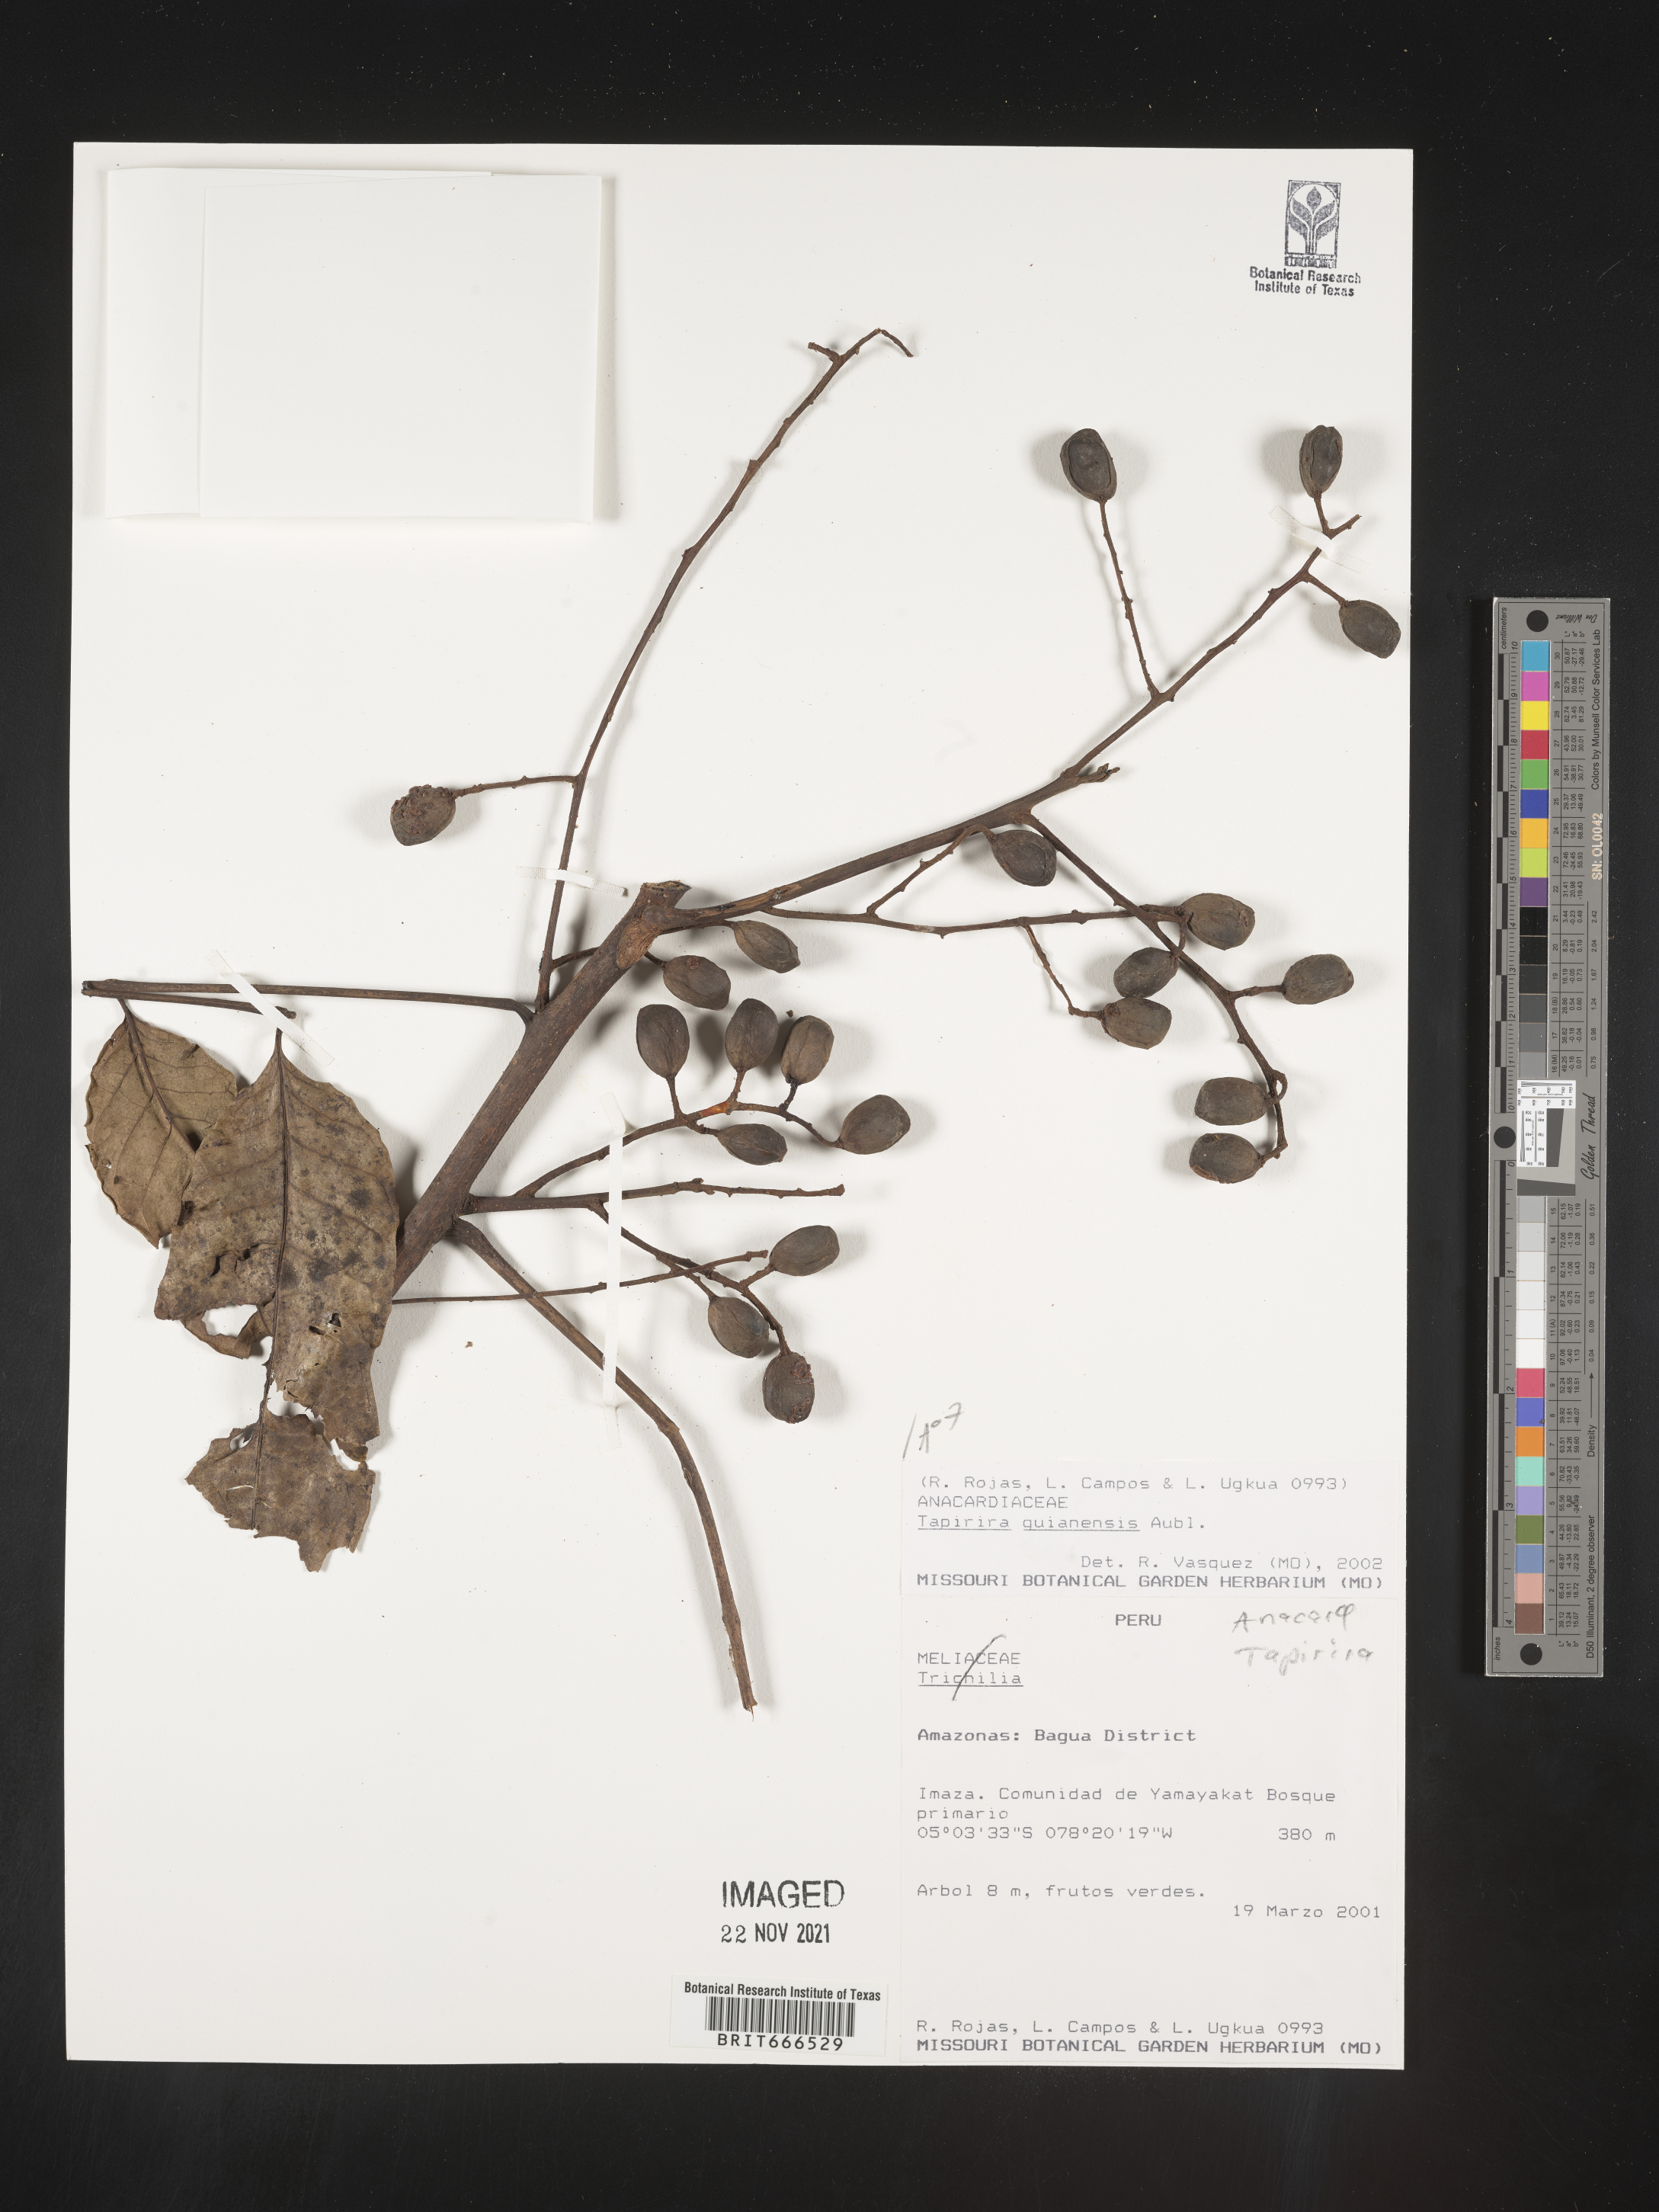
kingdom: Plantae
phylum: Tracheophyta
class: Magnoliopsida
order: Sapindales
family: Anacardiaceae
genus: Tapirira
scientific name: Tapirira
